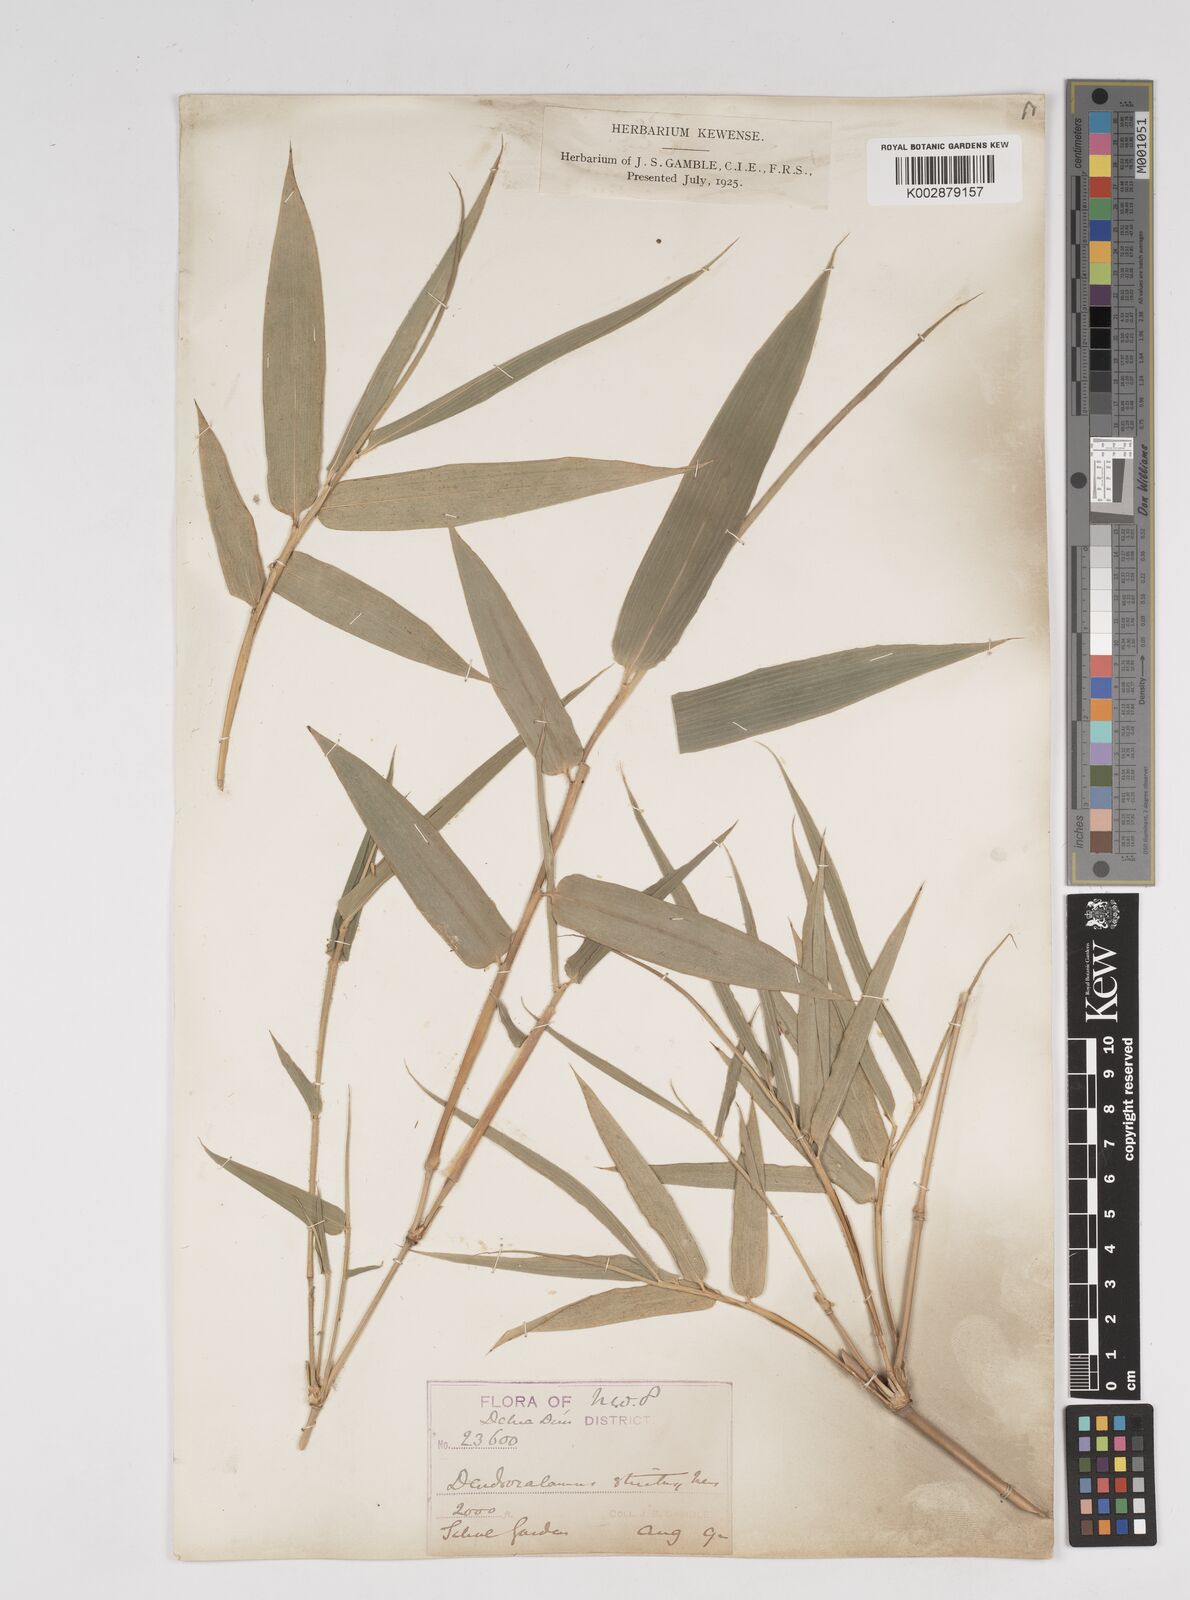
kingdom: Plantae
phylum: Tracheophyta
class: Liliopsida
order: Poales
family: Poaceae
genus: Dendrocalamus
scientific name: Dendrocalamus strictus
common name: Male bamboo
